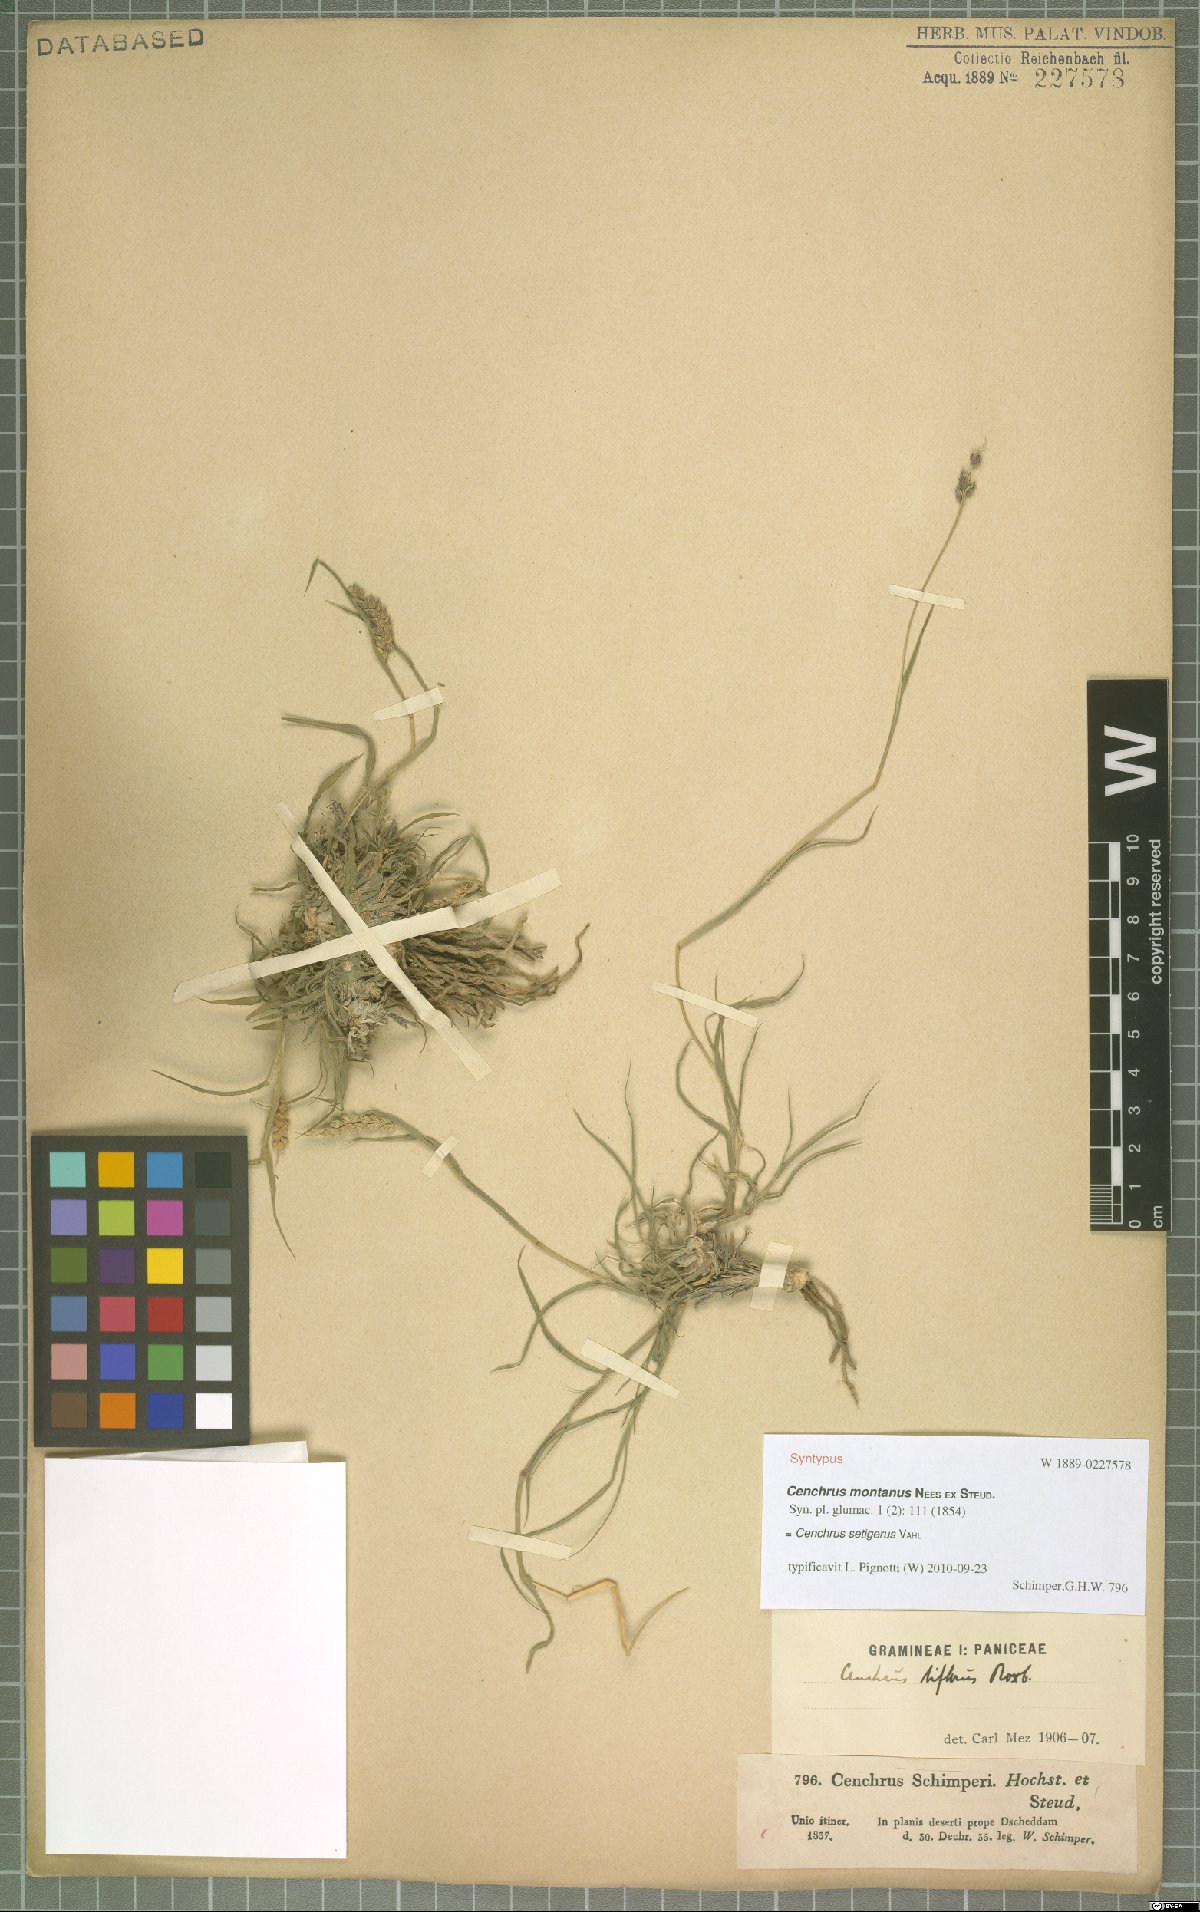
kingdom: Plantae
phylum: Tracheophyta
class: Liliopsida
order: Poales
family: Poaceae
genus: Cenchrus
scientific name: Cenchrus setigerus
